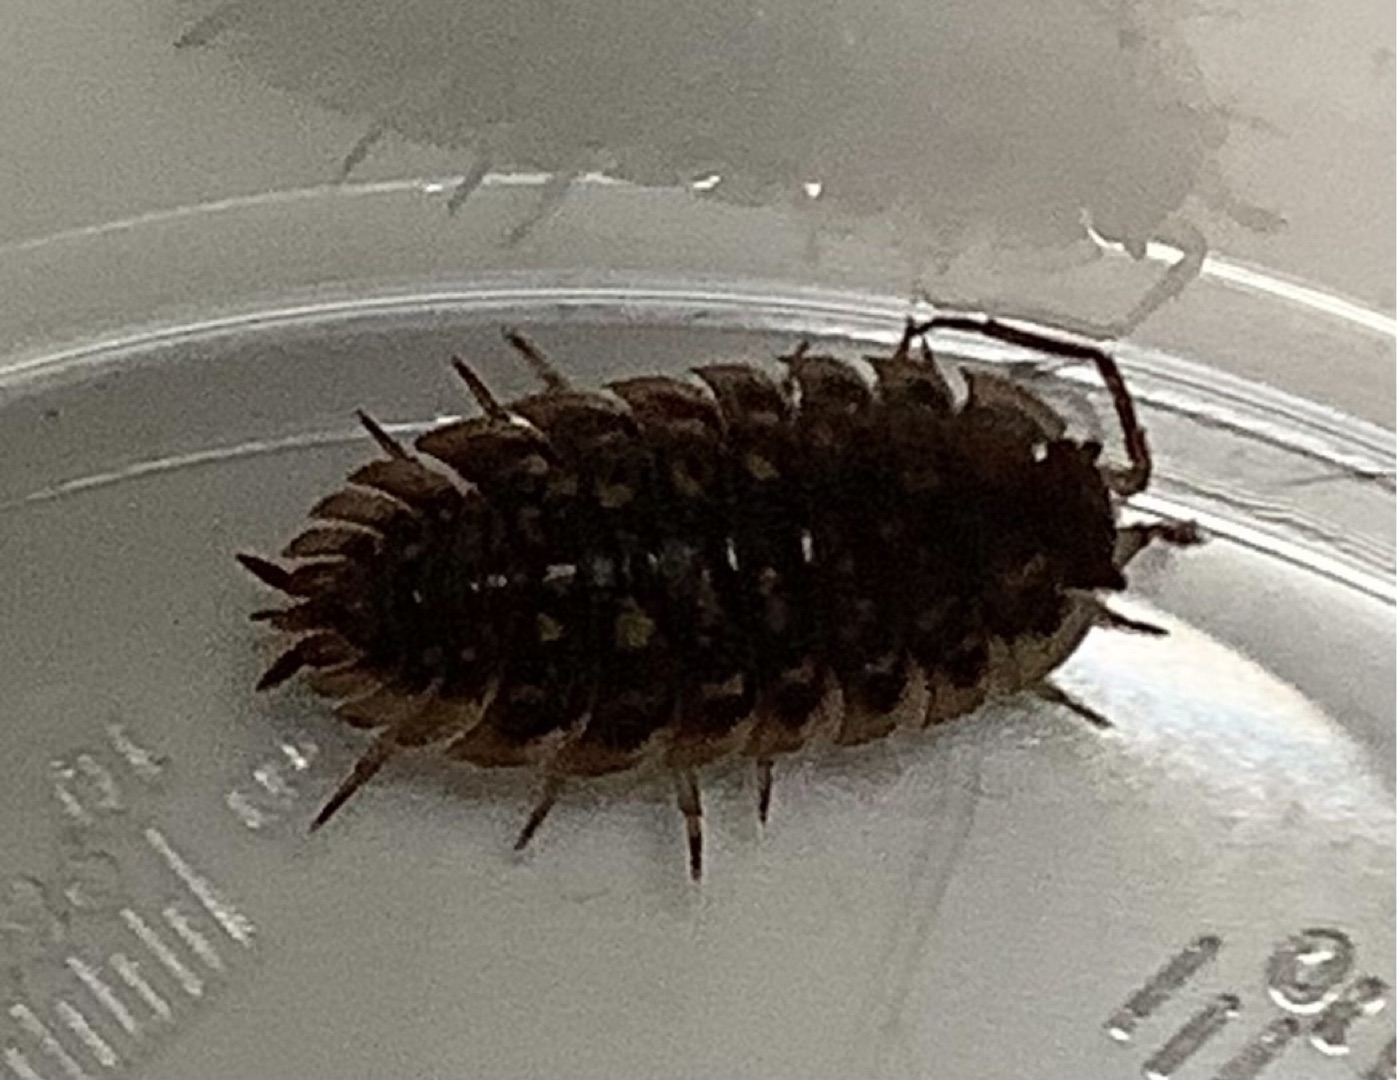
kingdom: Animalia
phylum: Arthropoda
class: Malacostraca
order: Isopoda
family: Oniscidae
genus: Oniscus
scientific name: Oniscus asellus
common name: Glat bænkebider
